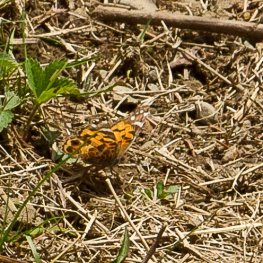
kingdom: Animalia
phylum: Arthropoda
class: Insecta
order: Lepidoptera
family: Nymphalidae
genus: Vanessa
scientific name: Vanessa virginiensis
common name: American Lady
